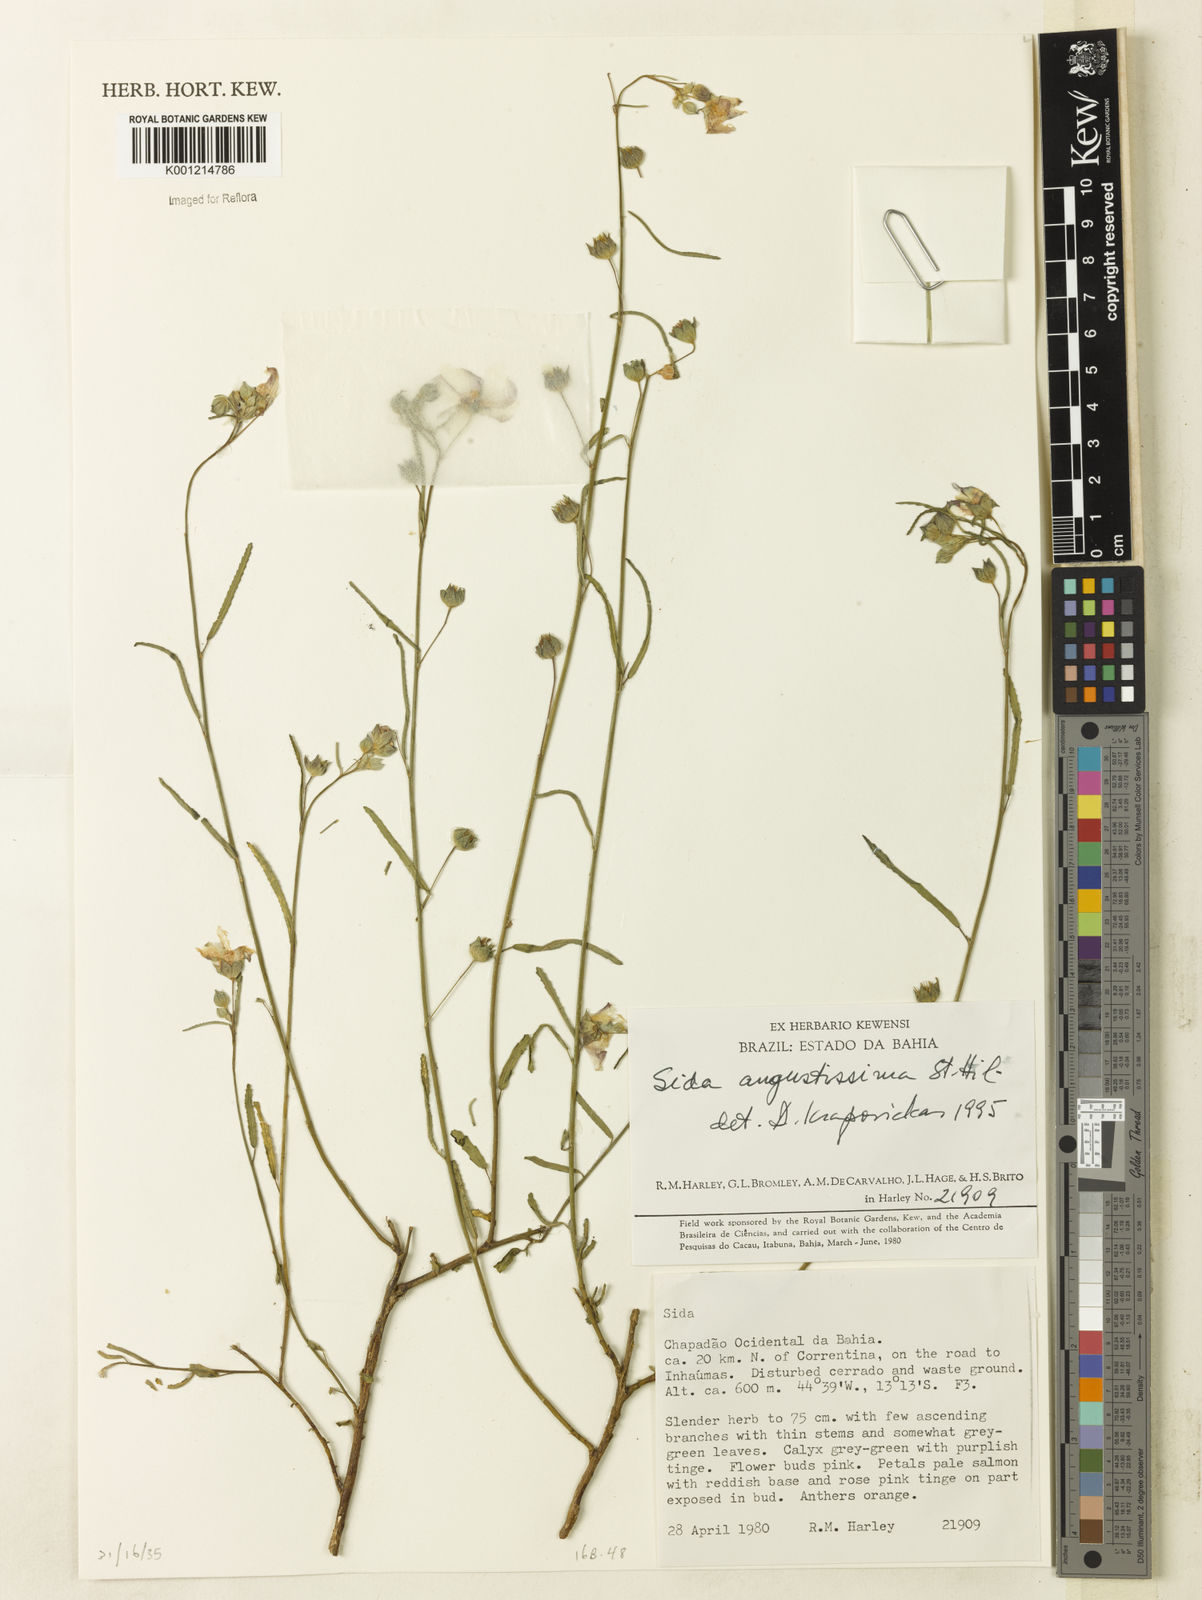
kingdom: Plantae
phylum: Tracheophyta
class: Magnoliopsida
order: Malvales
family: Malvaceae
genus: Sida
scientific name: Sida angustissima
